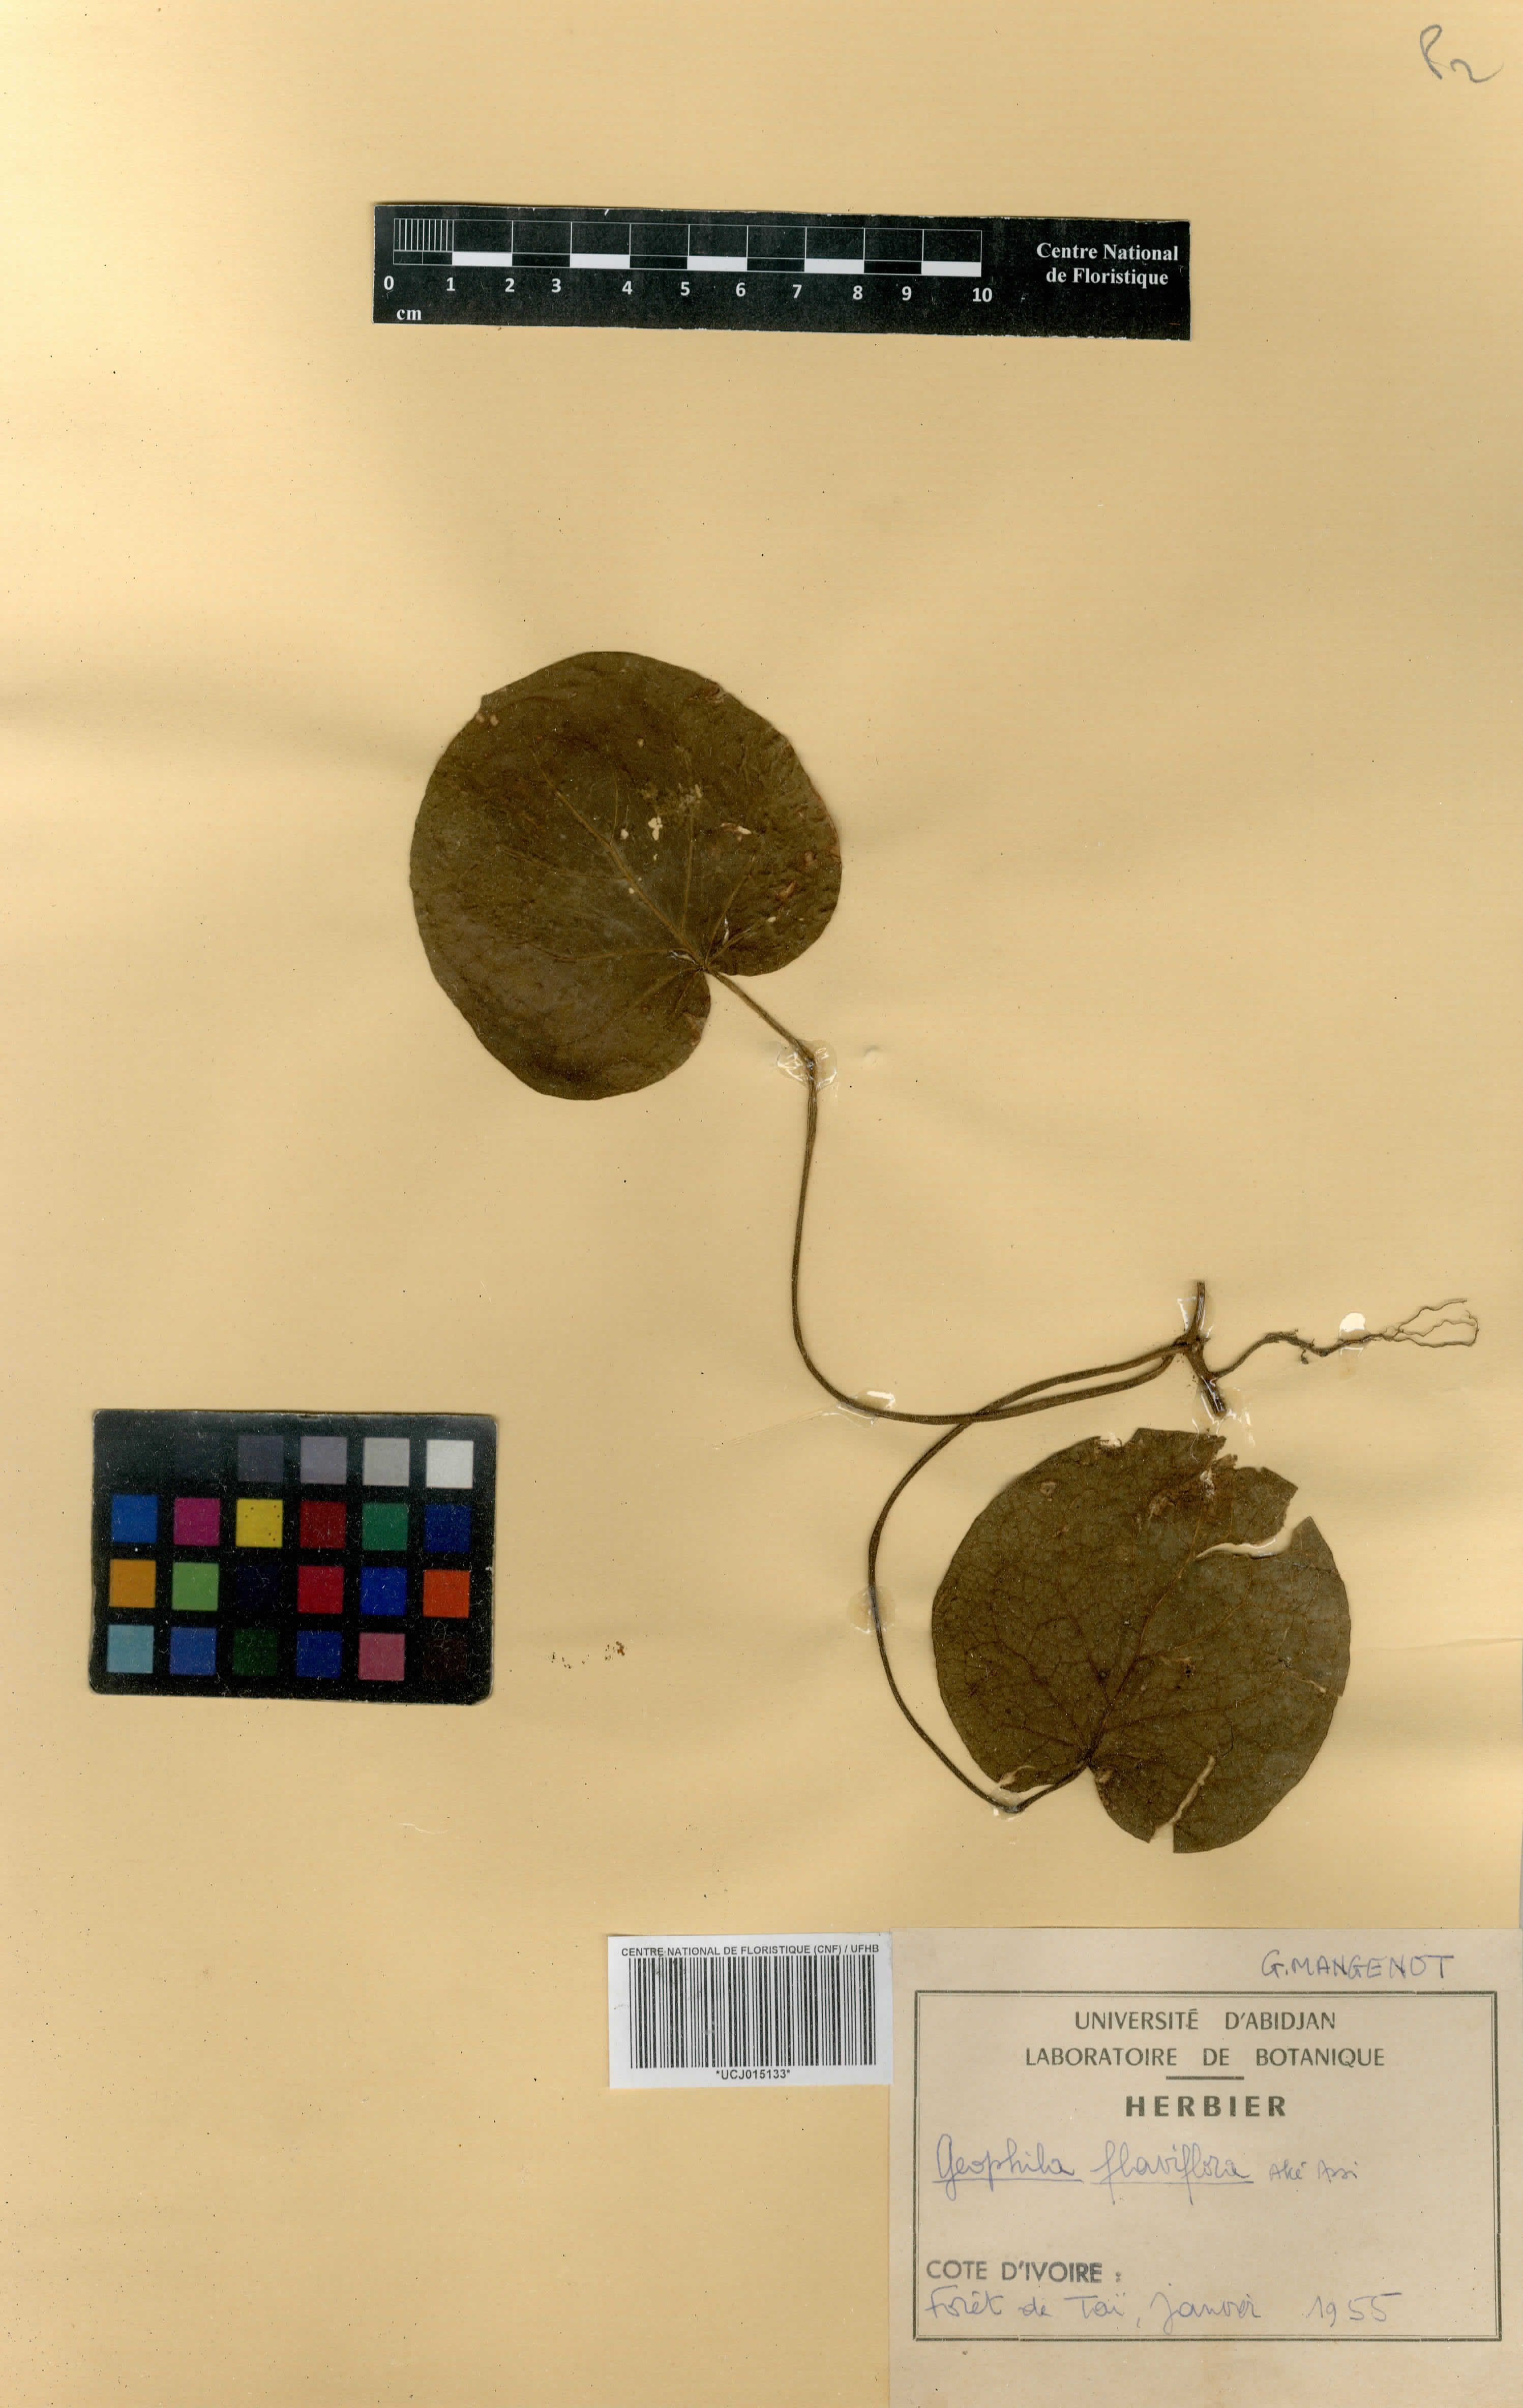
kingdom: Plantae
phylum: Tracheophyta
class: Magnoliopsida
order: Gentianales
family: Rubiaceae
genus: Geophila
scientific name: Geophila flaviflora
